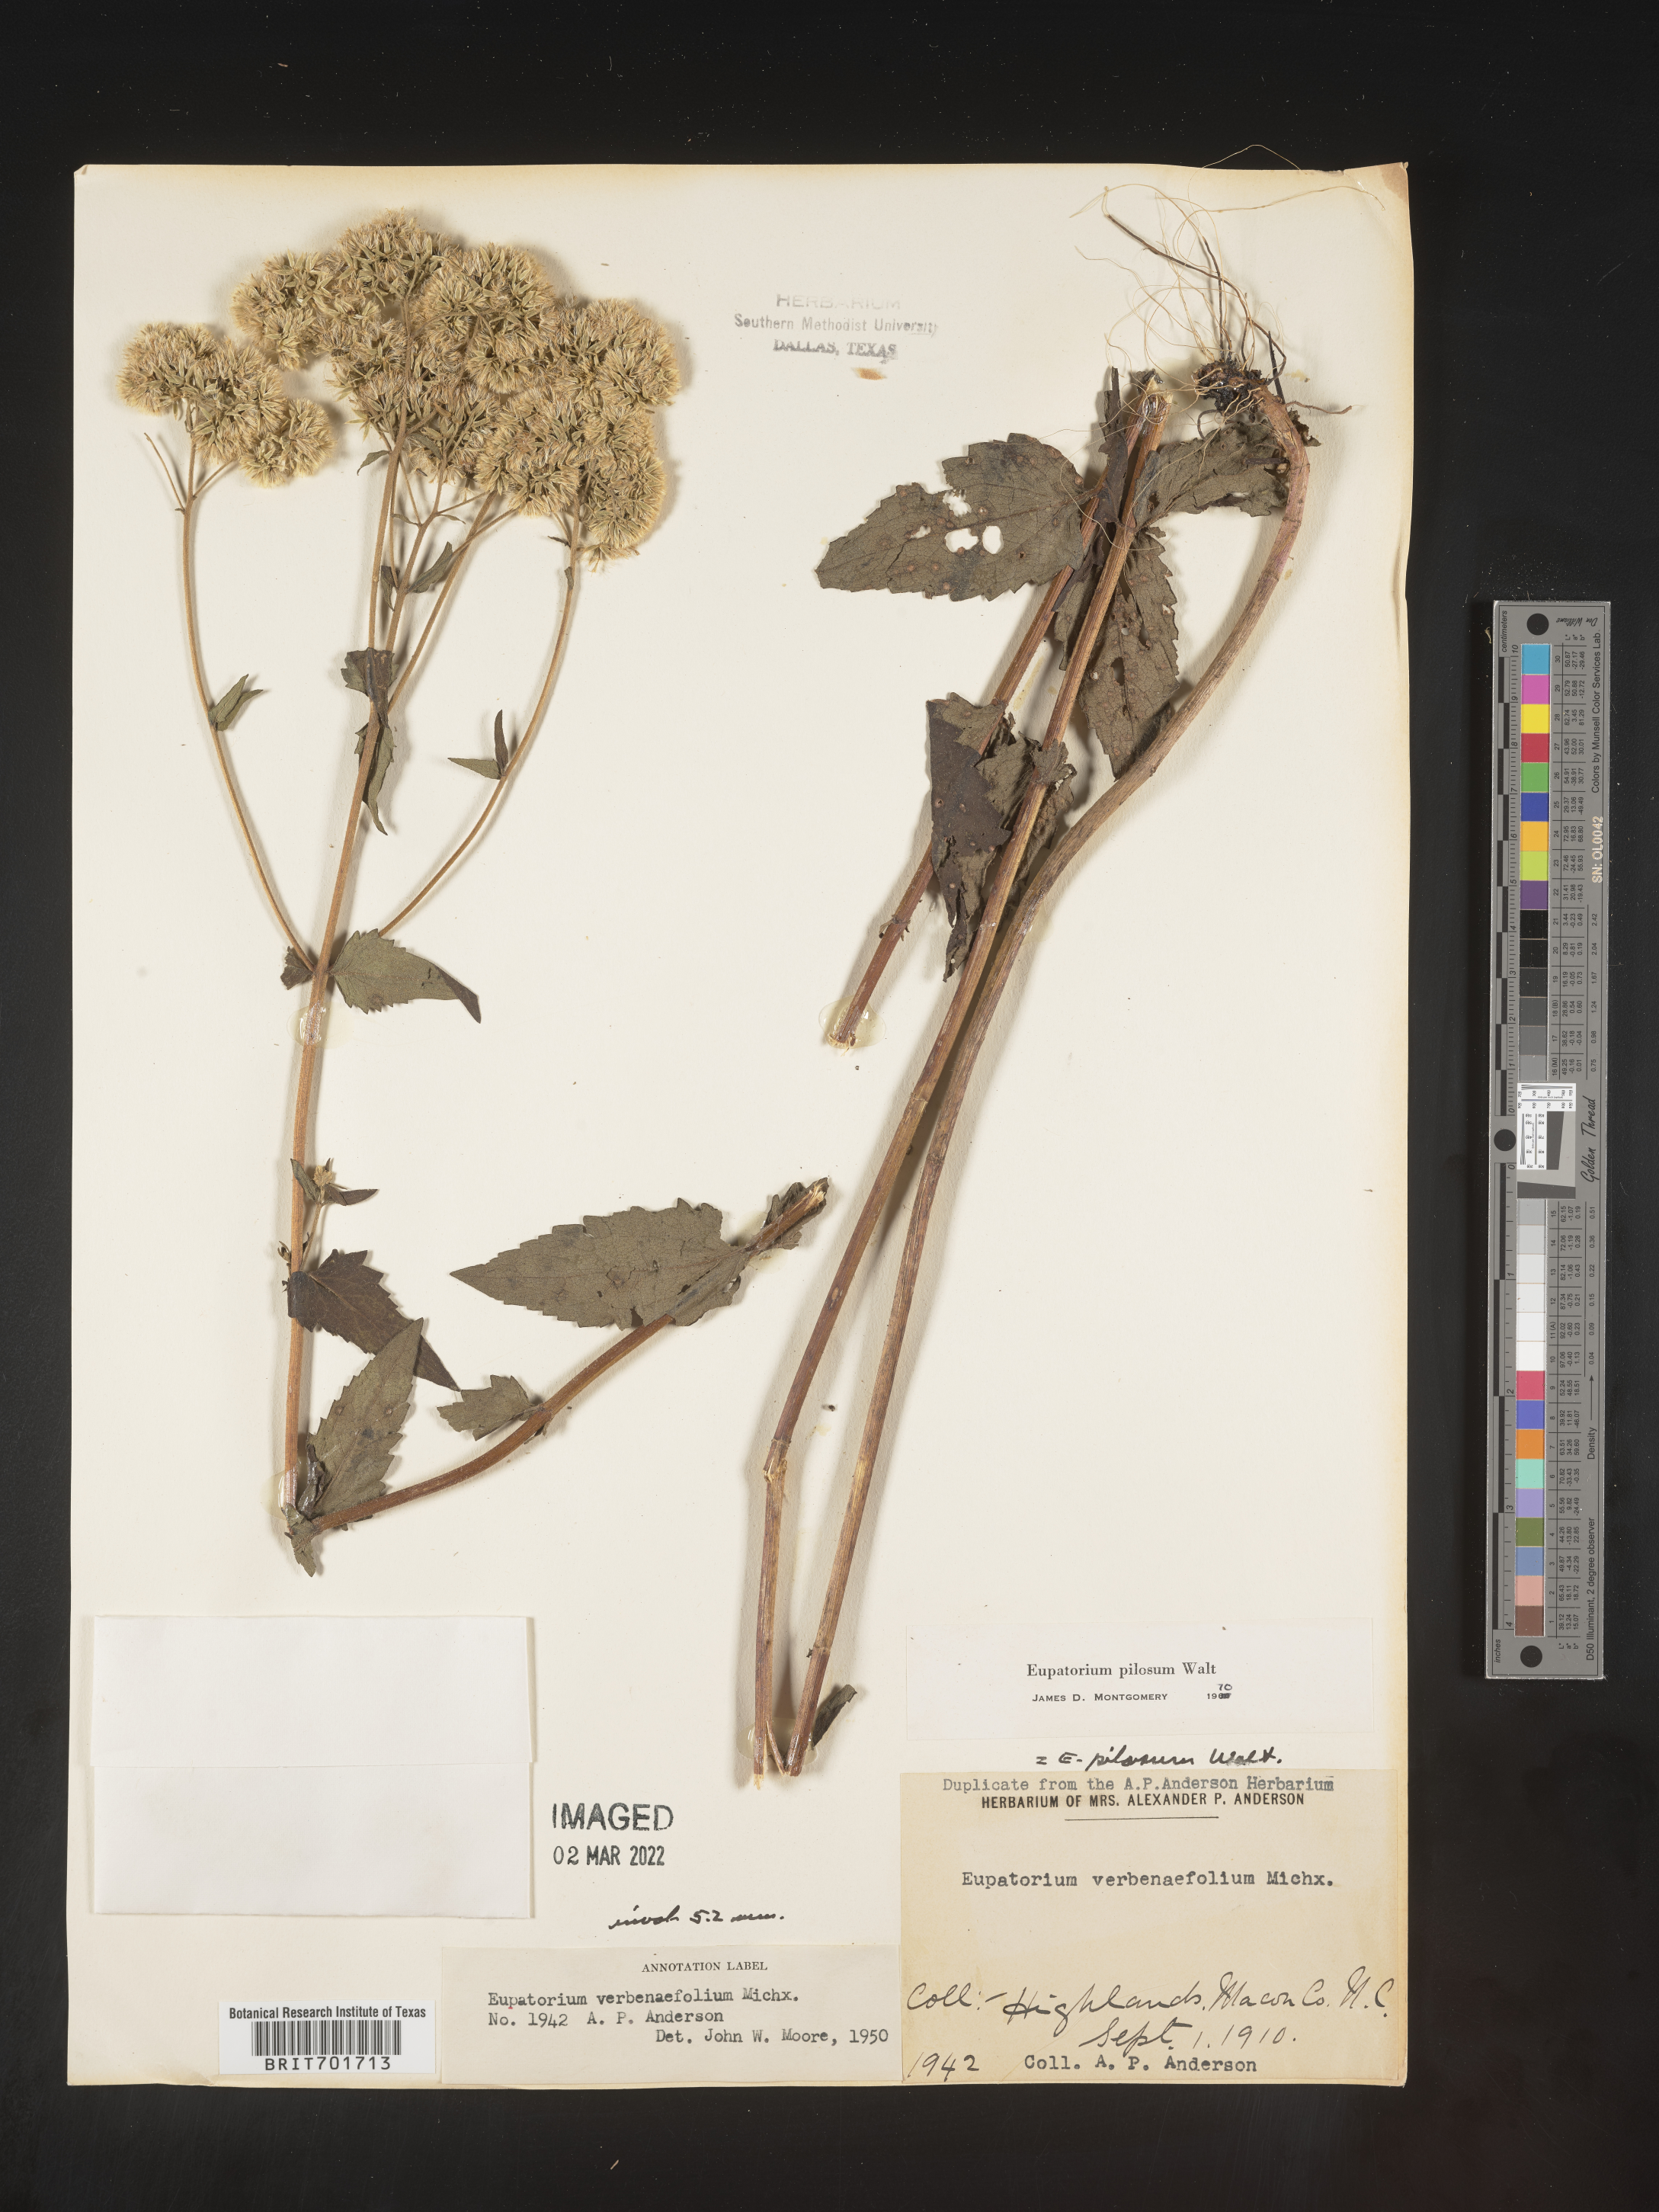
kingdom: Plantae
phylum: Tracheophyta
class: Magnoliopsida
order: Asterales
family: Asteraceae
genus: Eupatorium
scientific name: Eupatorium pilosum
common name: Rough boneset
